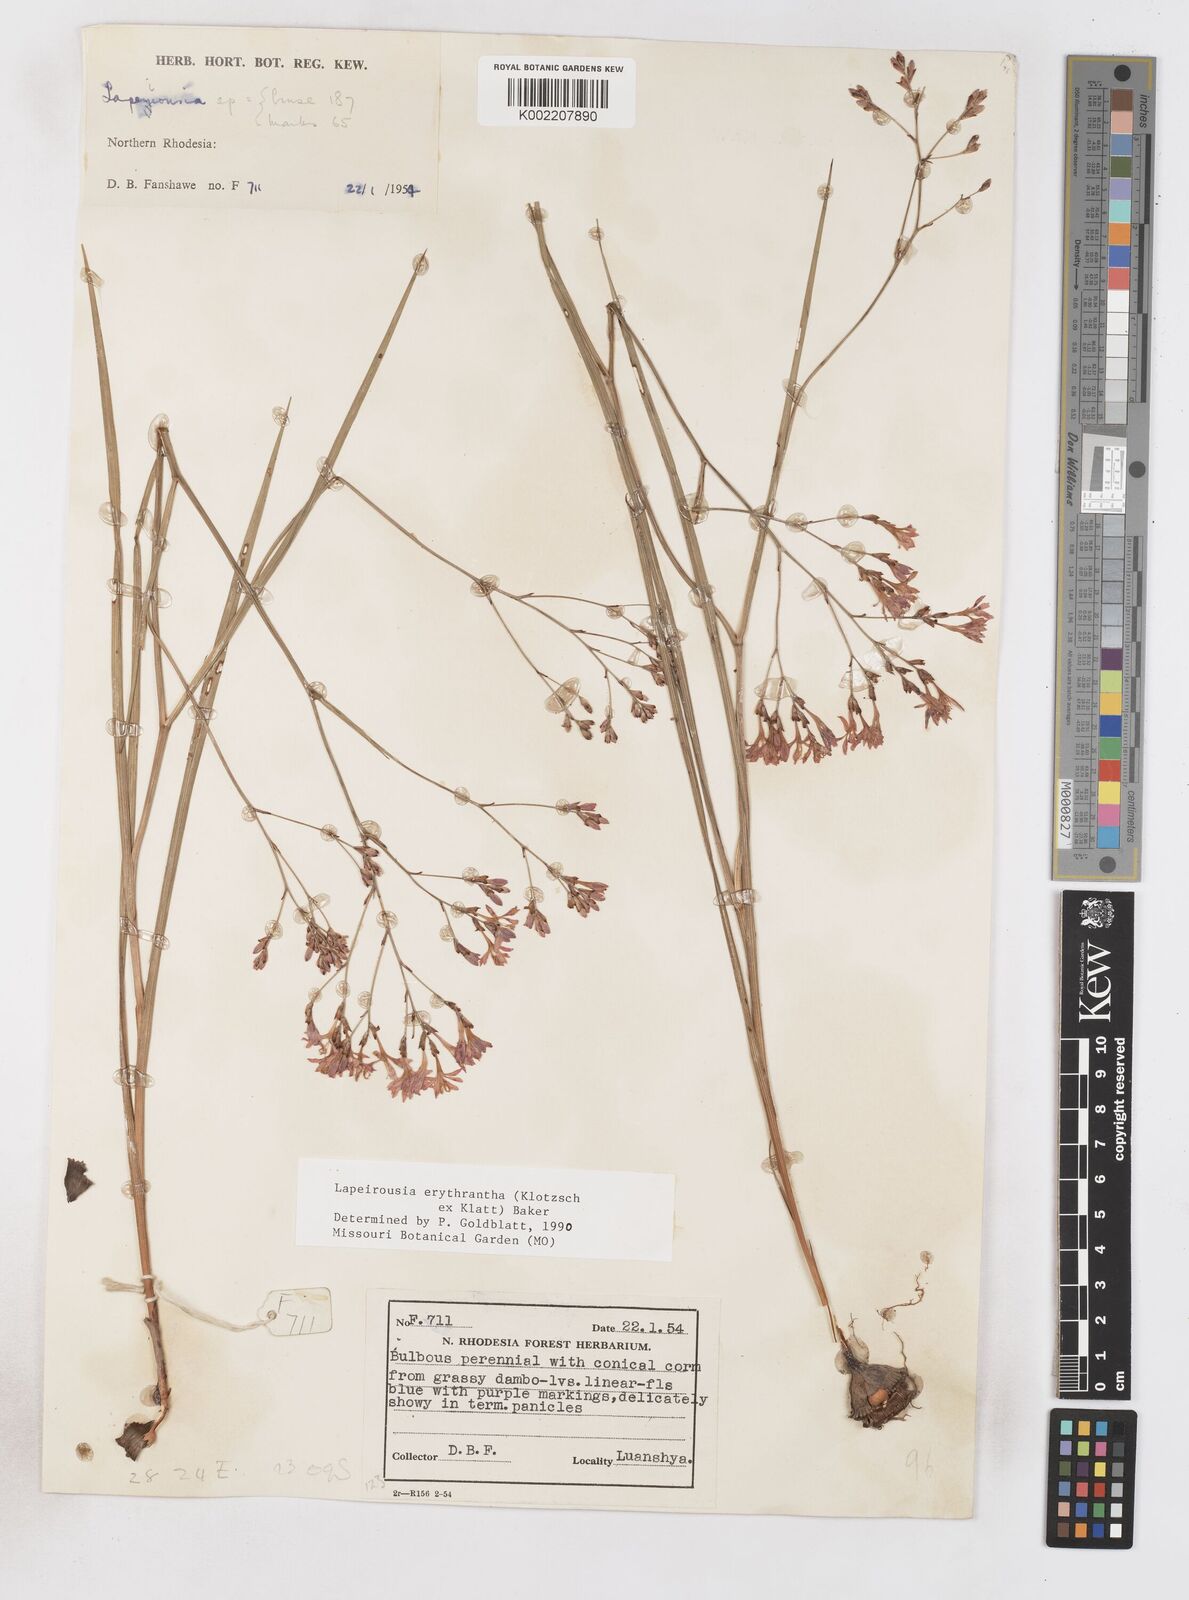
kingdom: Plantae
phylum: Tracheophyta
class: Liliopsida
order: Asparagales
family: Iridaceae
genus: Afrosolen
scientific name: Afrosolen erythranthus
